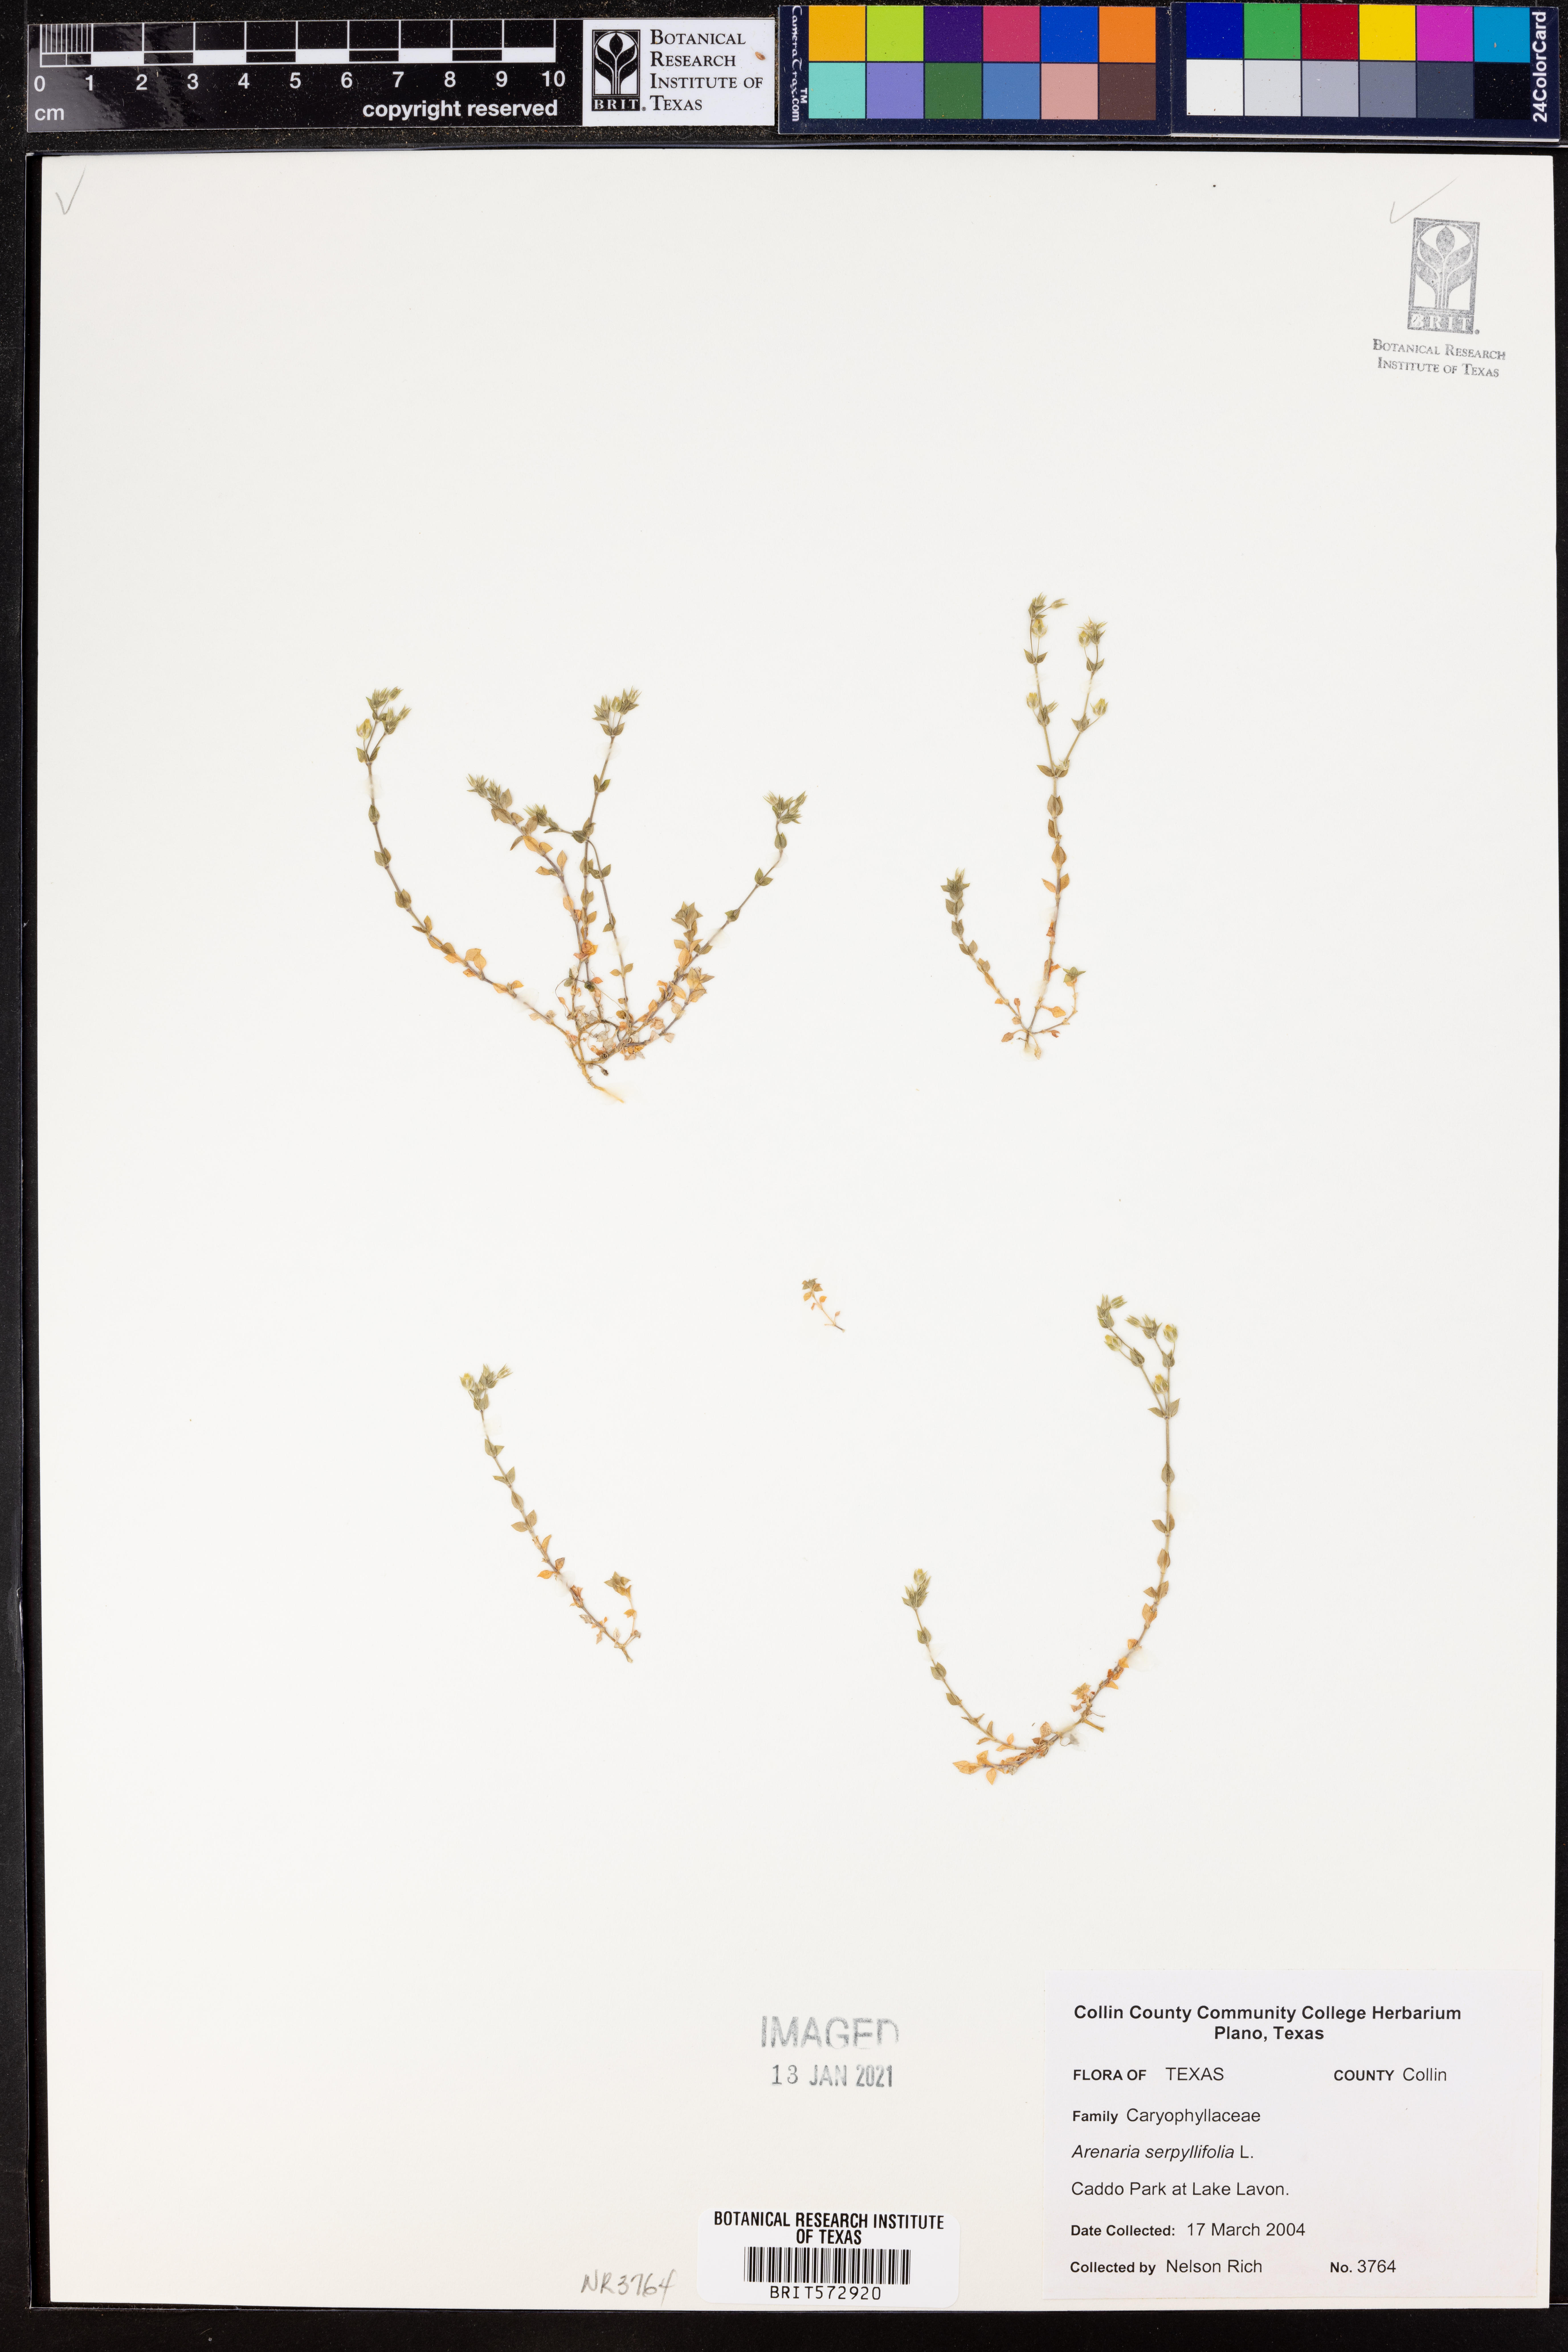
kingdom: Plantae
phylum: Tracheophyta
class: Magnoliopsida
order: Caryophyllales
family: Caryophyllaceae
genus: Arenaria
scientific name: Arenaria serpyllifolia
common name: Thyme-leaved sandwort
